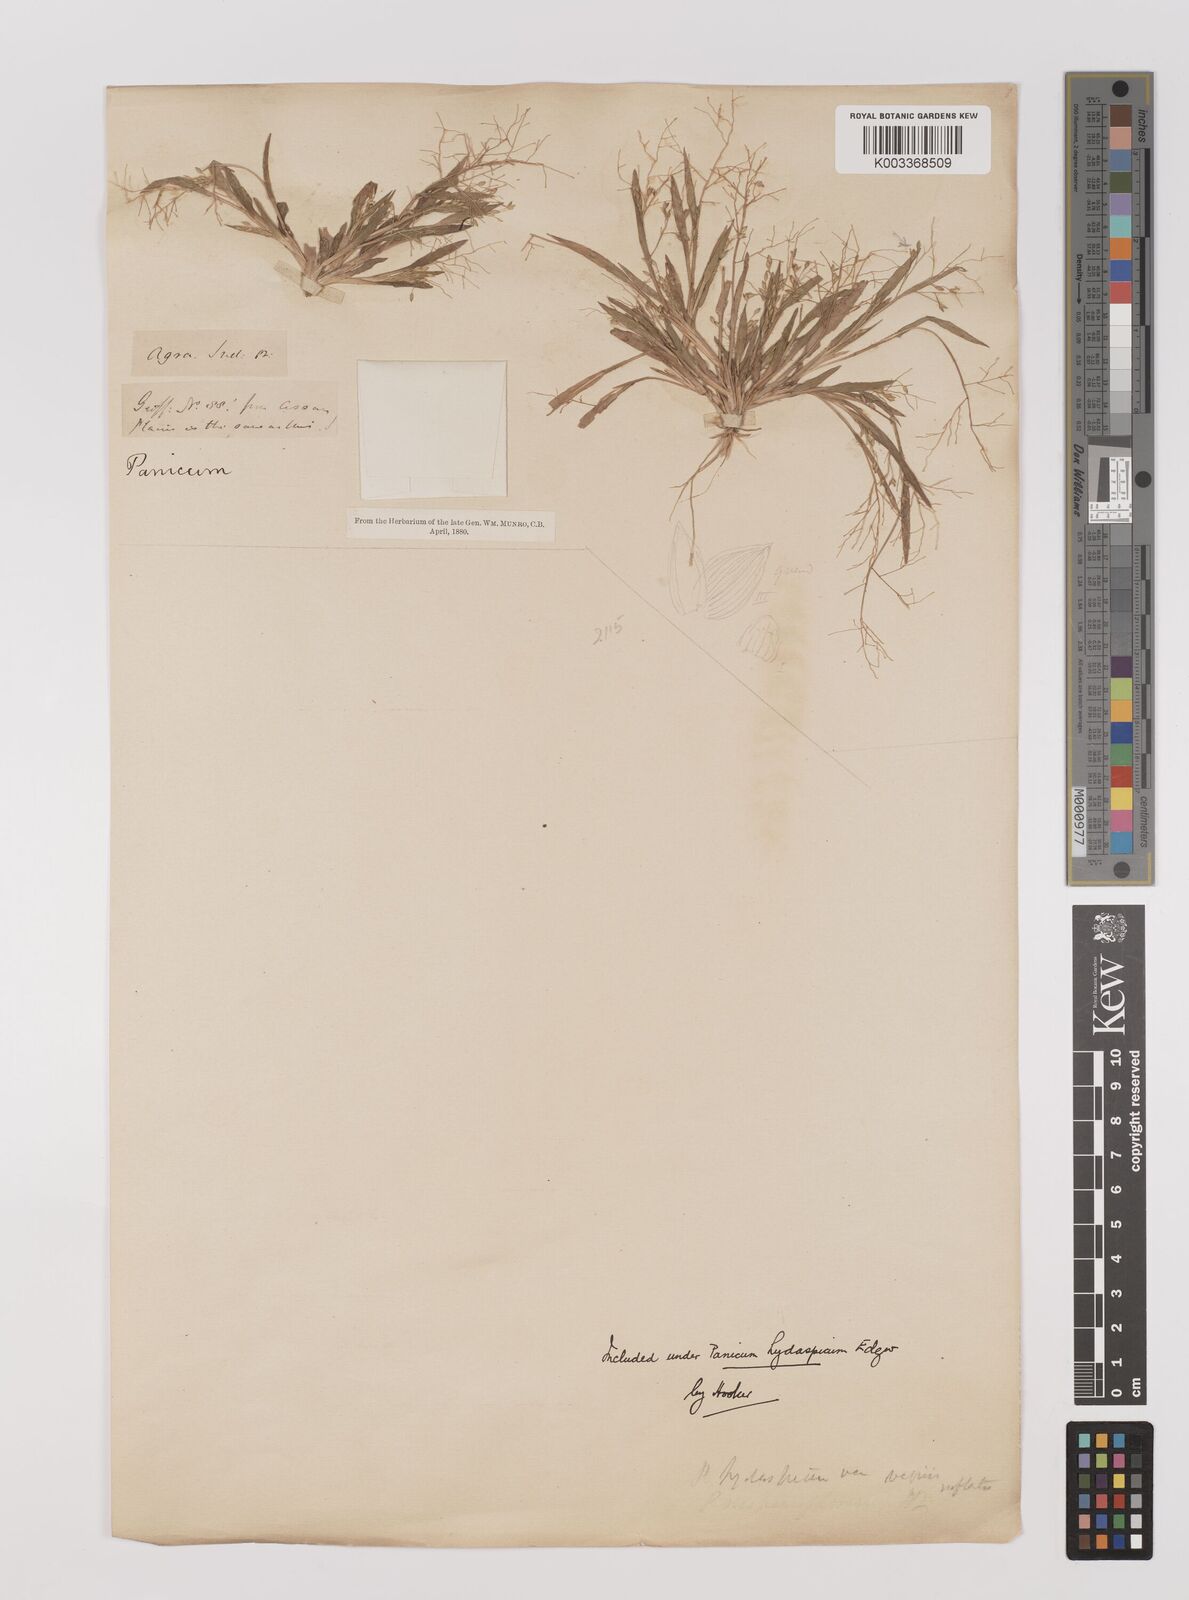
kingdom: Plantae
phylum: Tracheophyta
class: Liliopsida
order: Poales
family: Poaceae
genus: Panicum
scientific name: Panicum sumatrense
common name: Little millet
